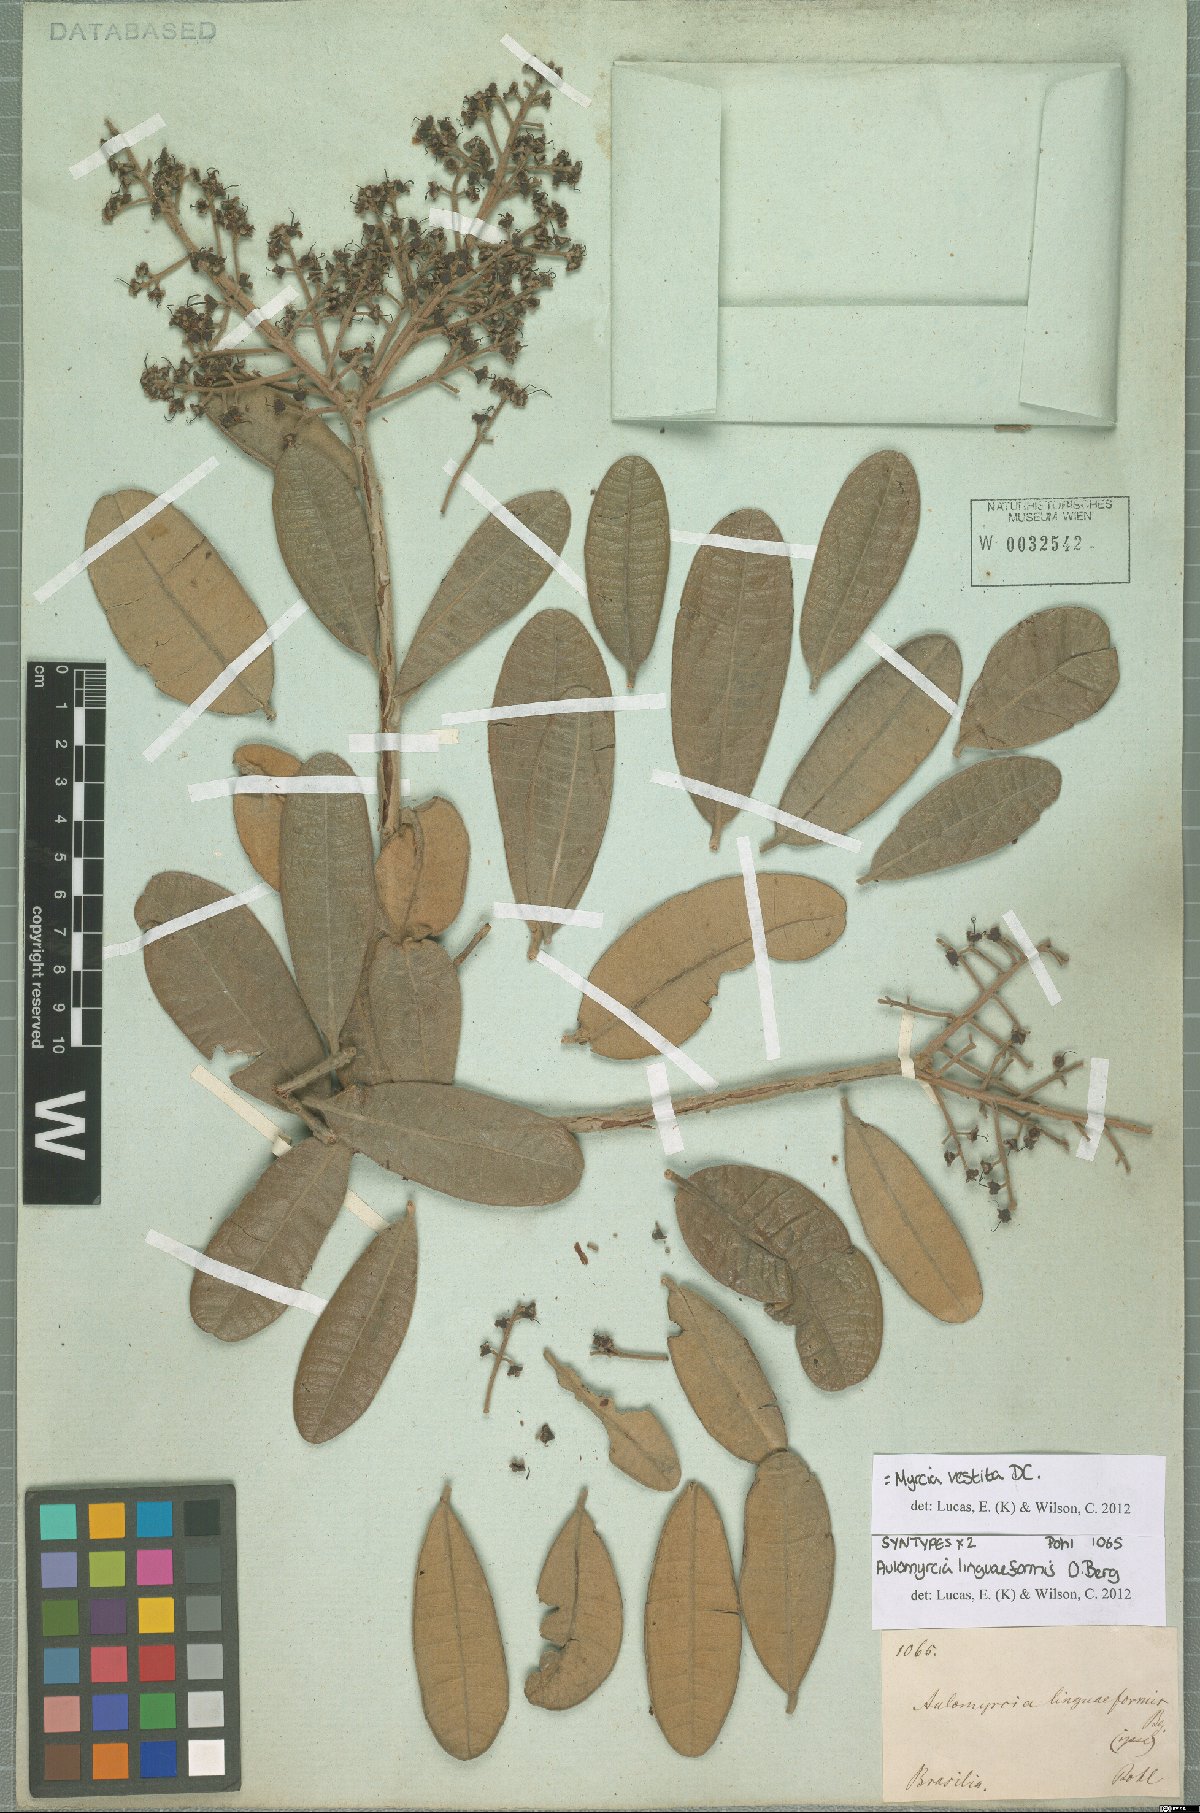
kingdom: Plantae
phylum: Tracheophyta
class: Magnoliopsida
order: Myrtales
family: Myrtaceae
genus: Myrcia
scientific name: Myrcia vestita
